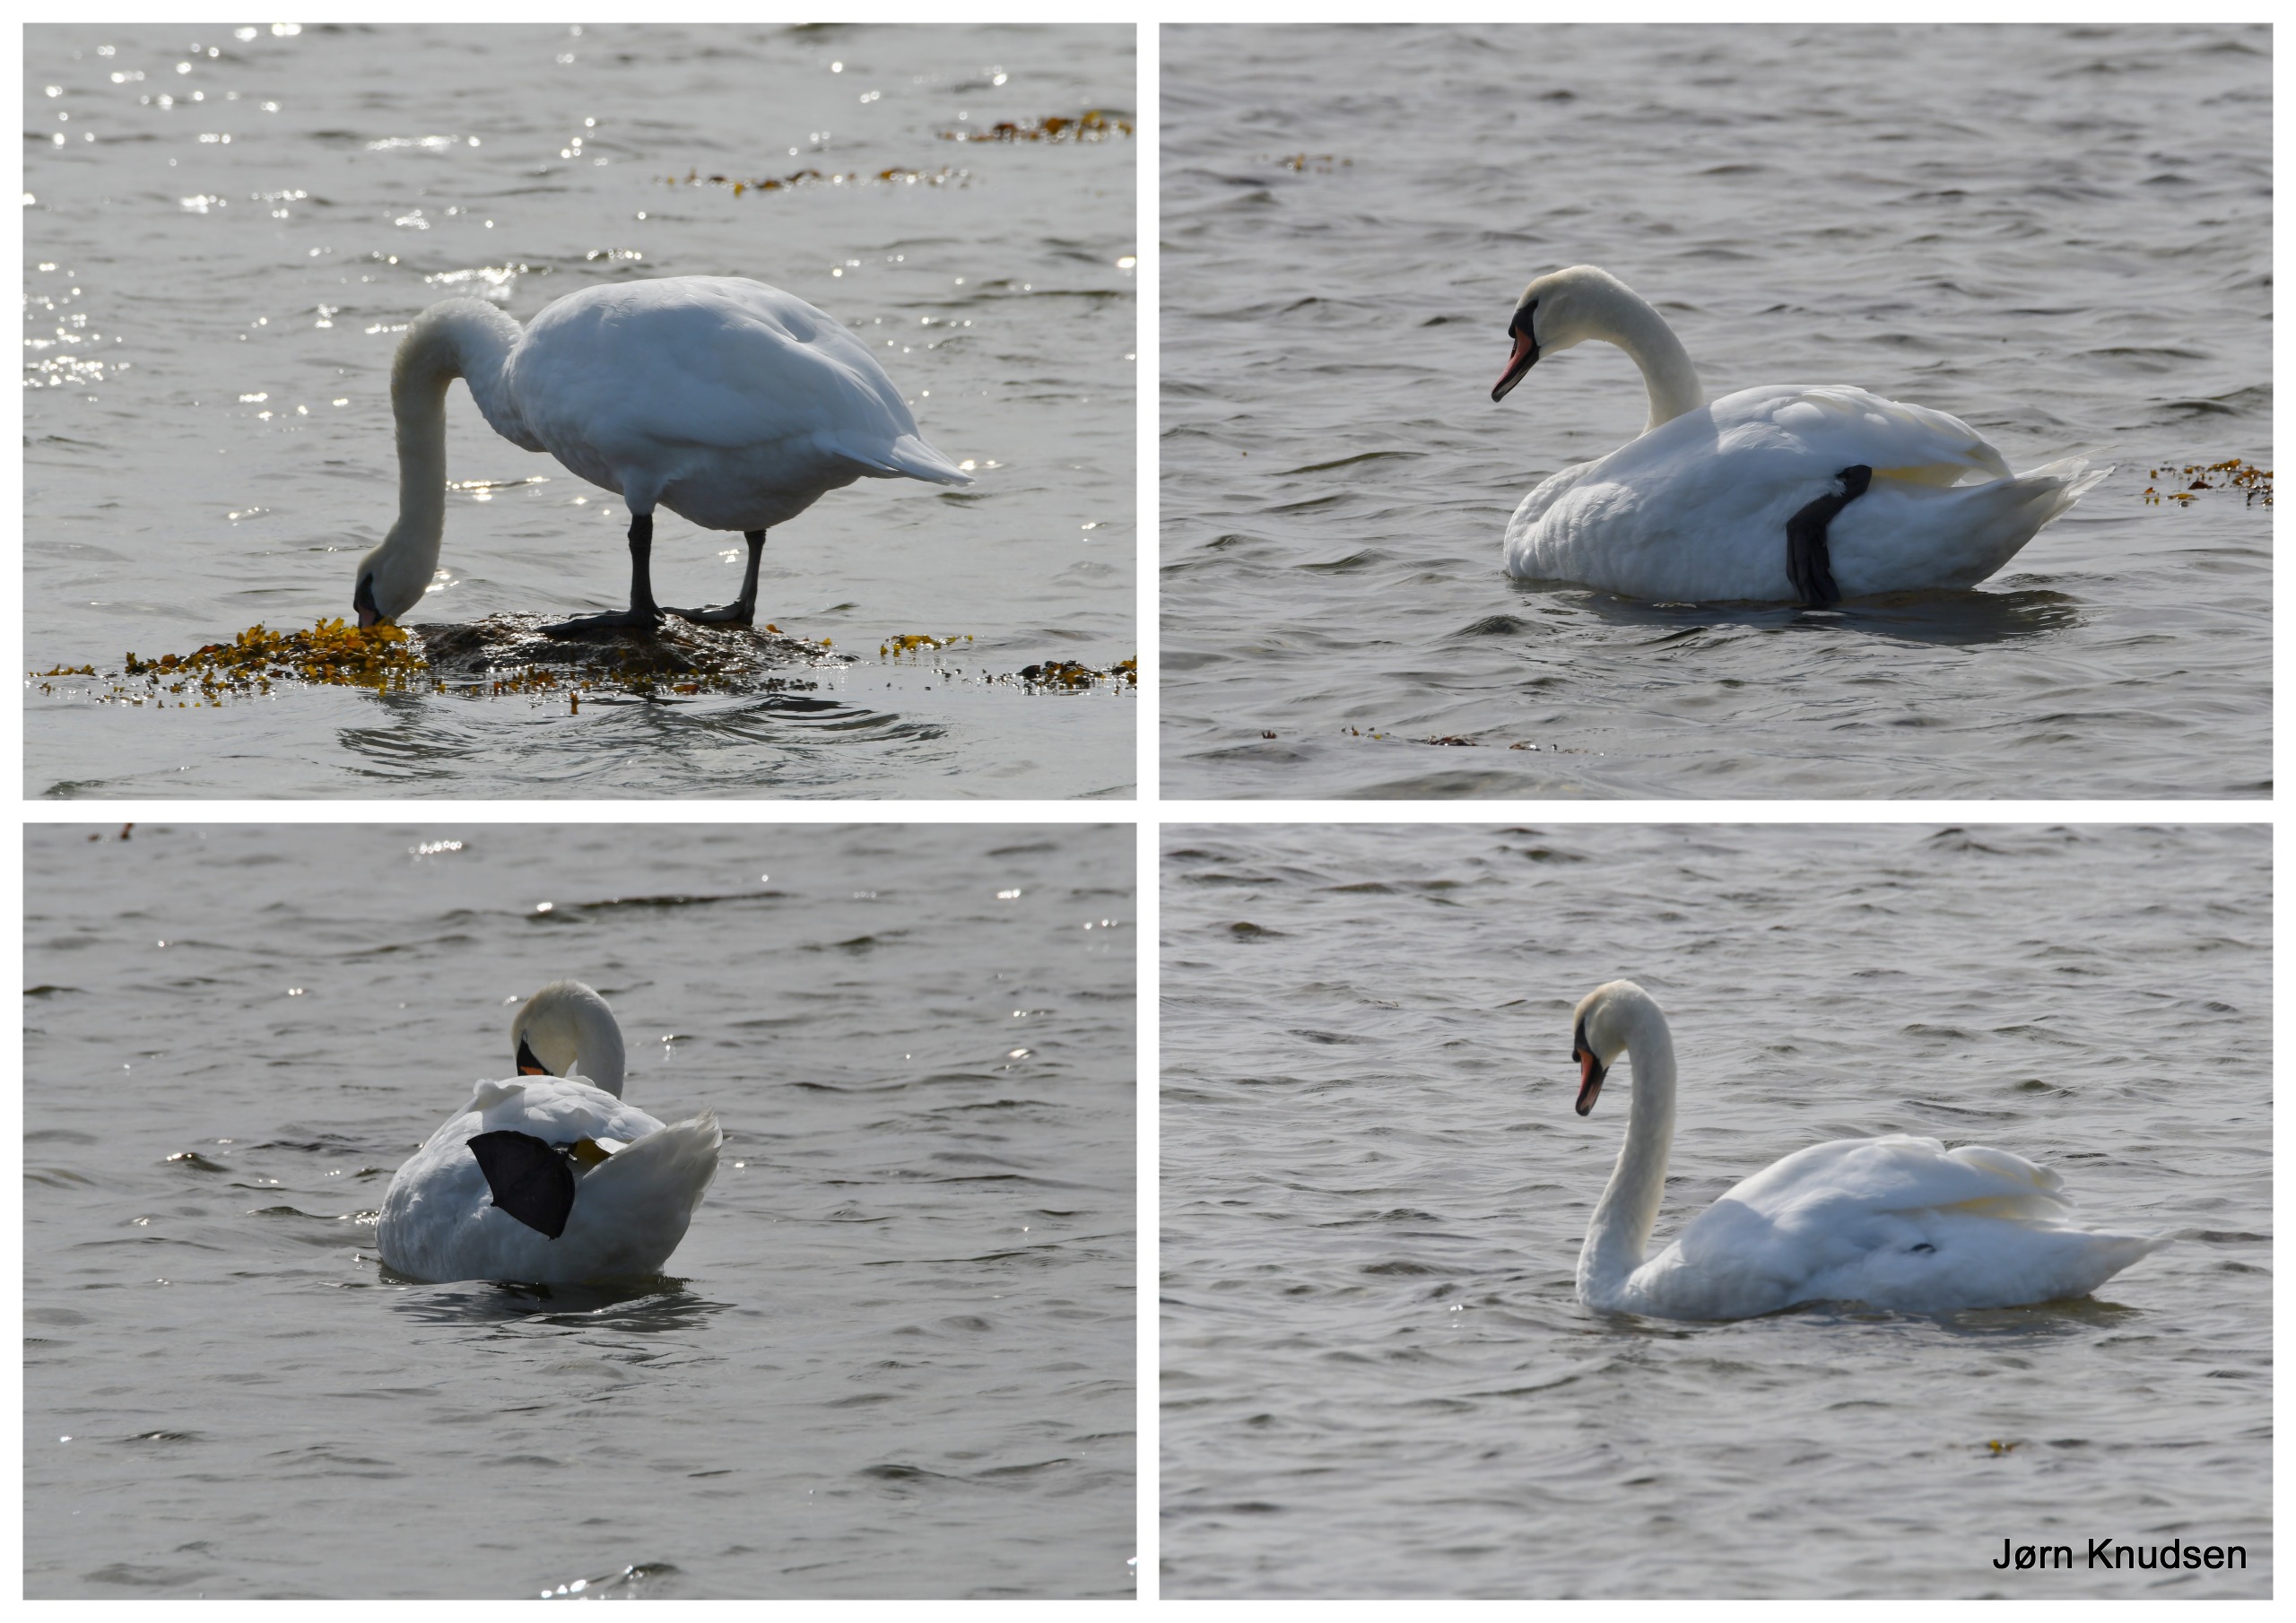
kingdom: Animalia
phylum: Chordata
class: Aves
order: Anseriformes
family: Anatidae
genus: Cygnus
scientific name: Cygnus olor
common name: Knopsvane
